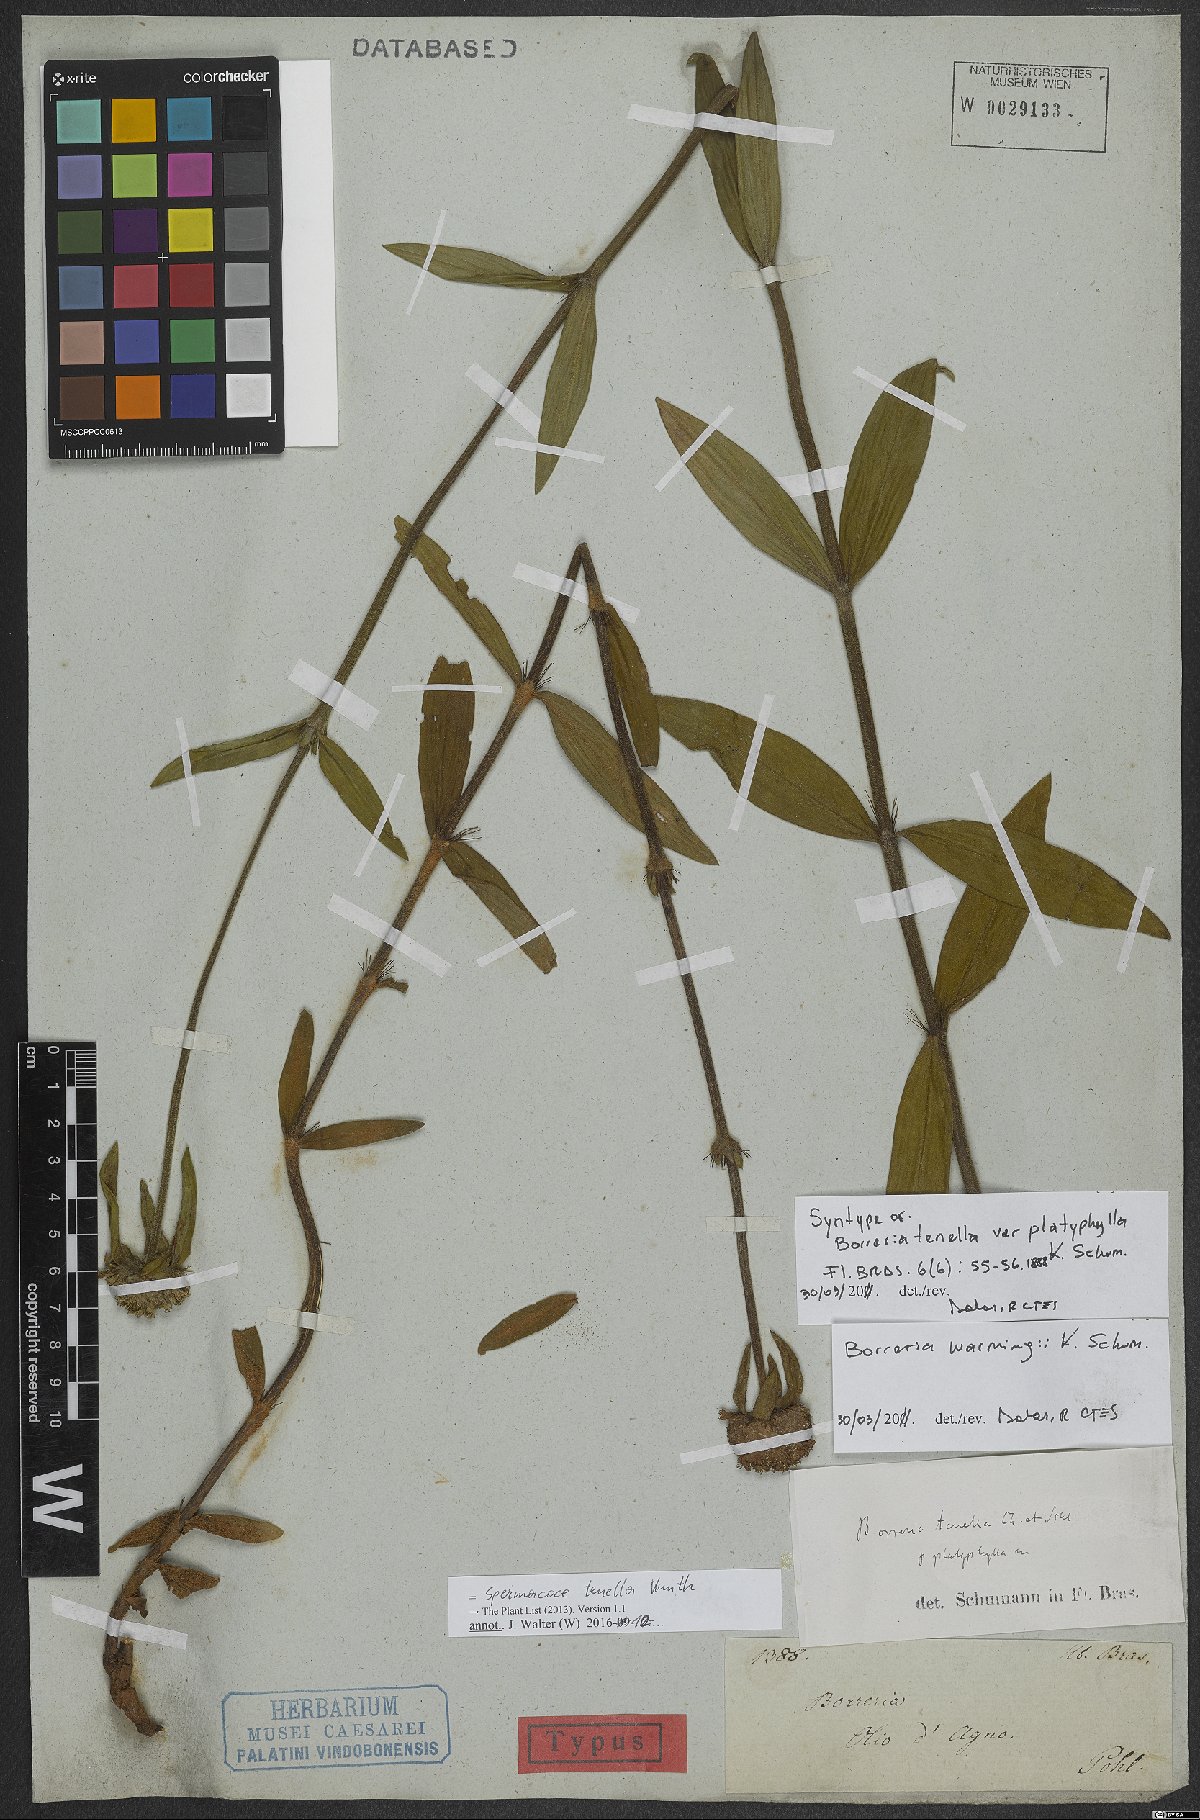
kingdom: Plantae
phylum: Tracheophyta
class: Magnoliopsida
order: Gentianales
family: Rubiaceae
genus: Spermacoce
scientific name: Spermacoce orinocensis
